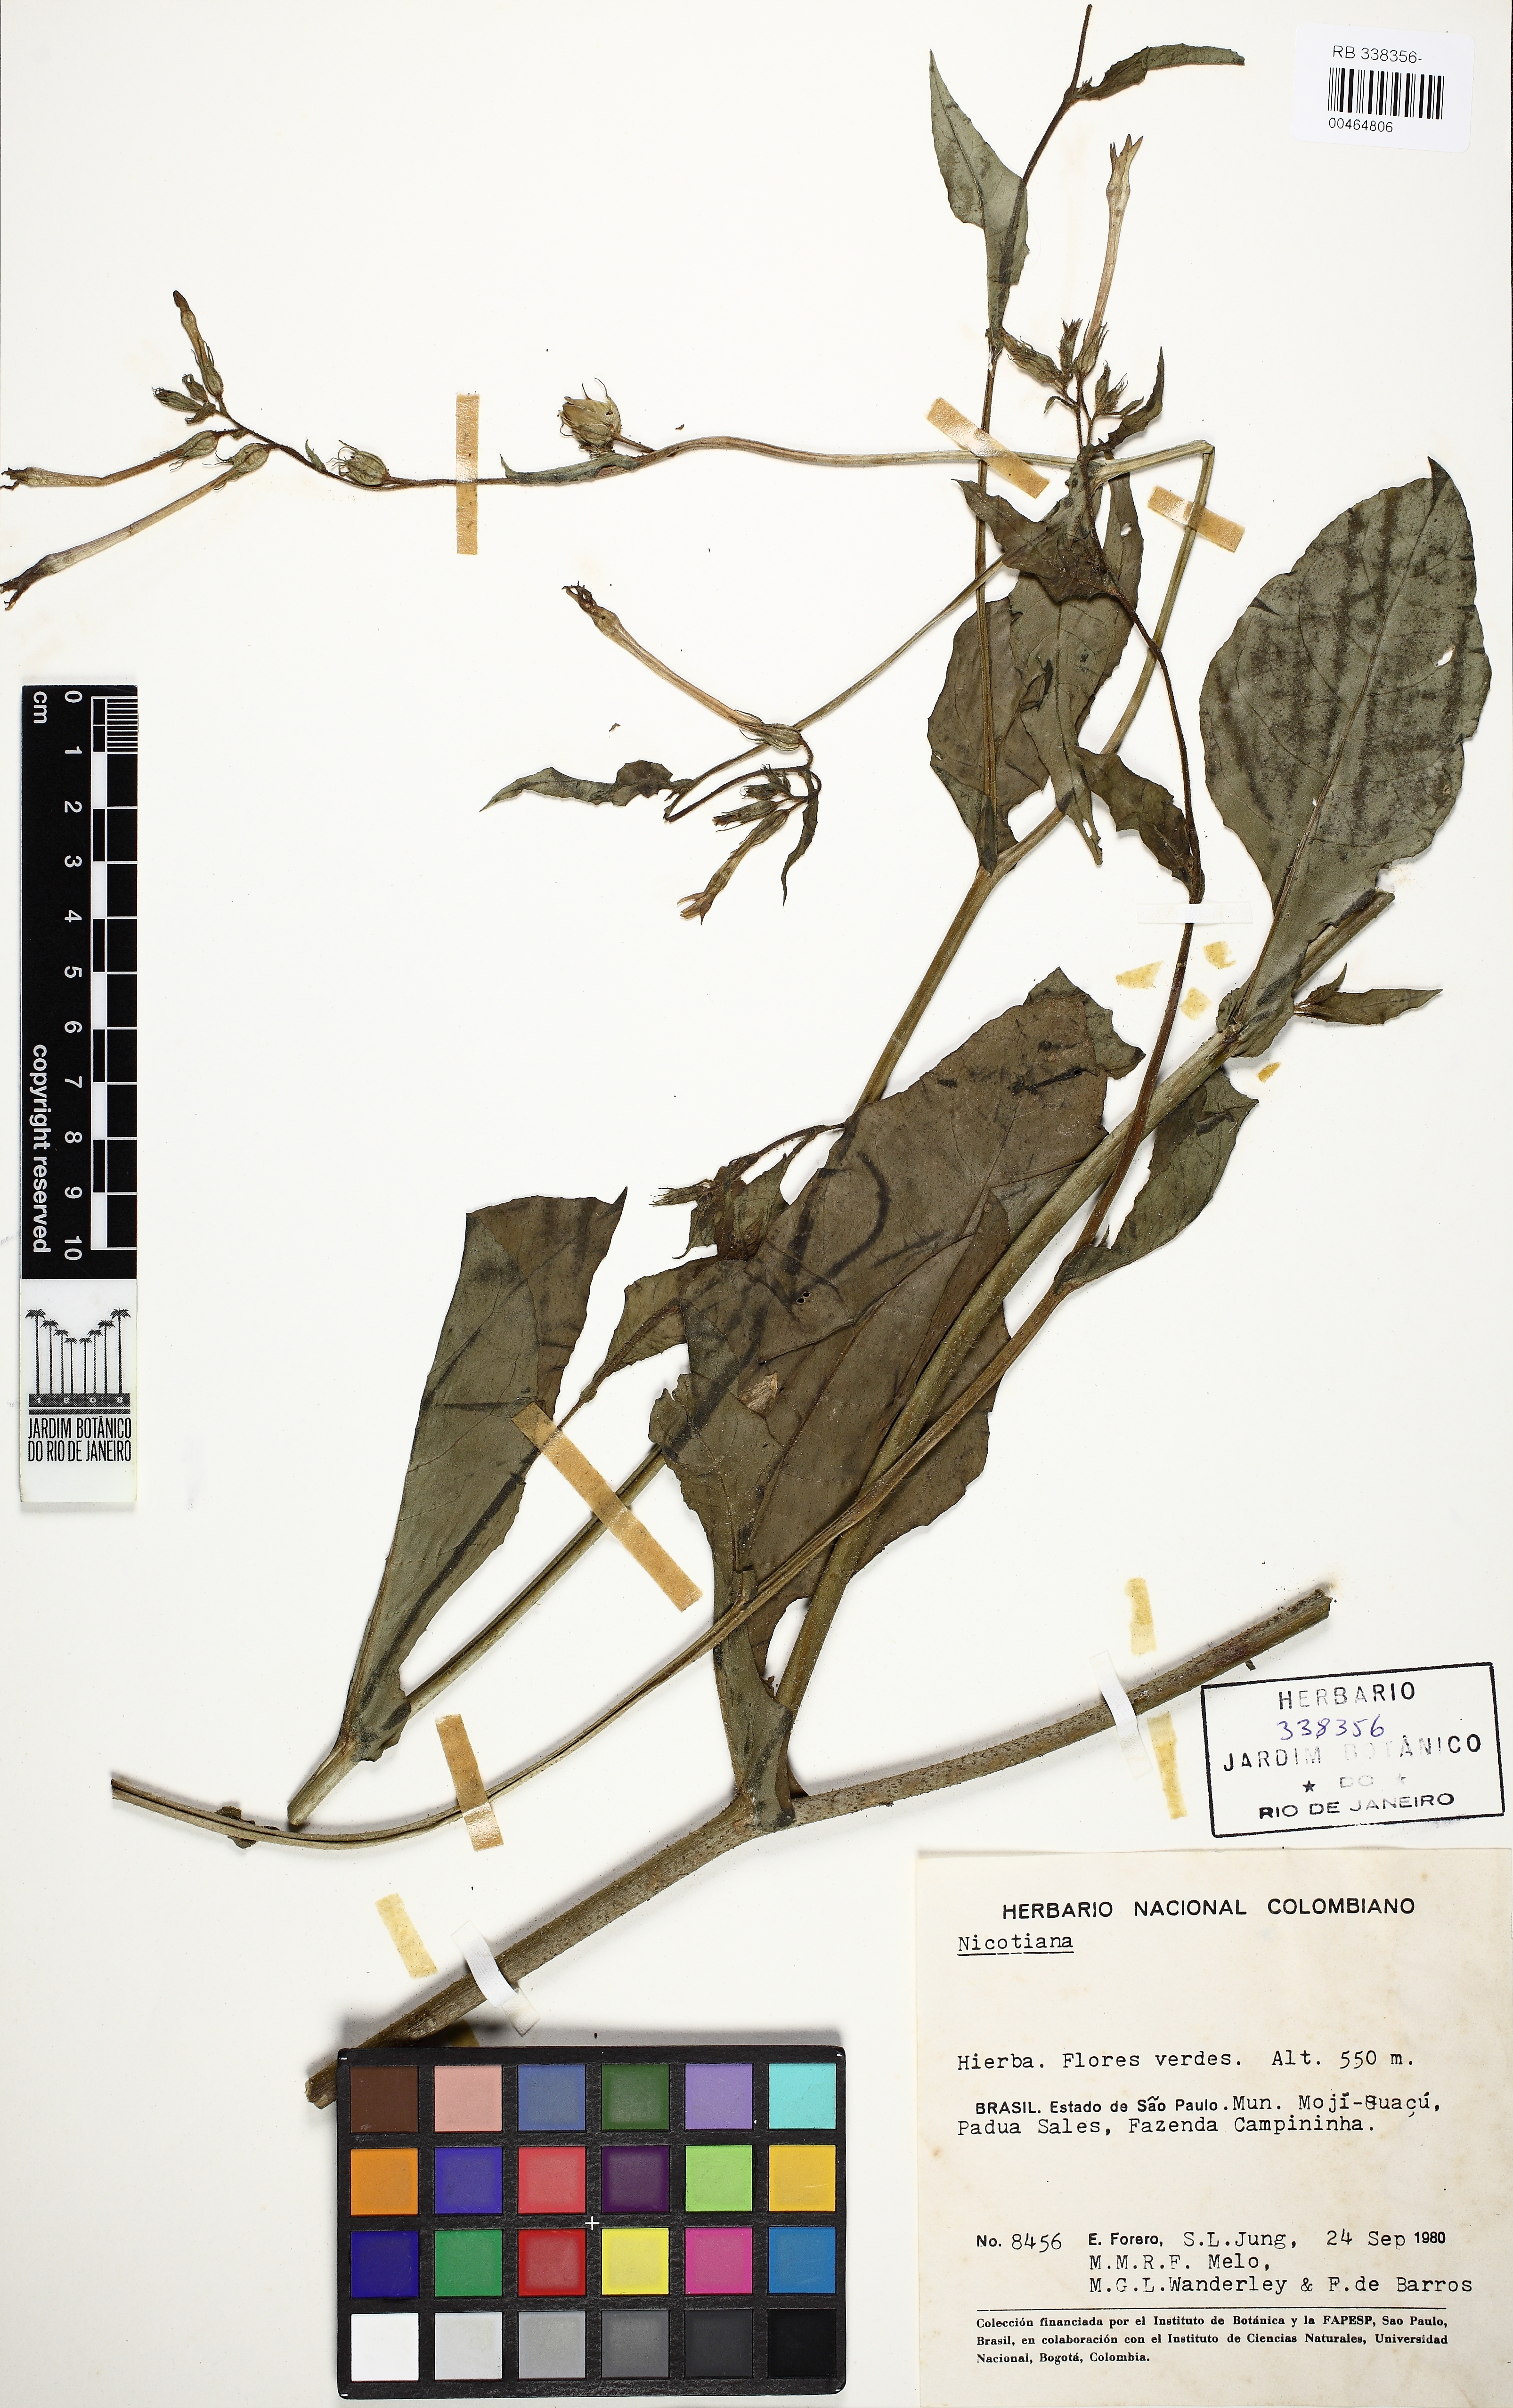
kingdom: Plantae
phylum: Tracheophyta
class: Magnoliopsida
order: Solanales
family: Solanaceae
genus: Nicotiana
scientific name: Nicotiana
